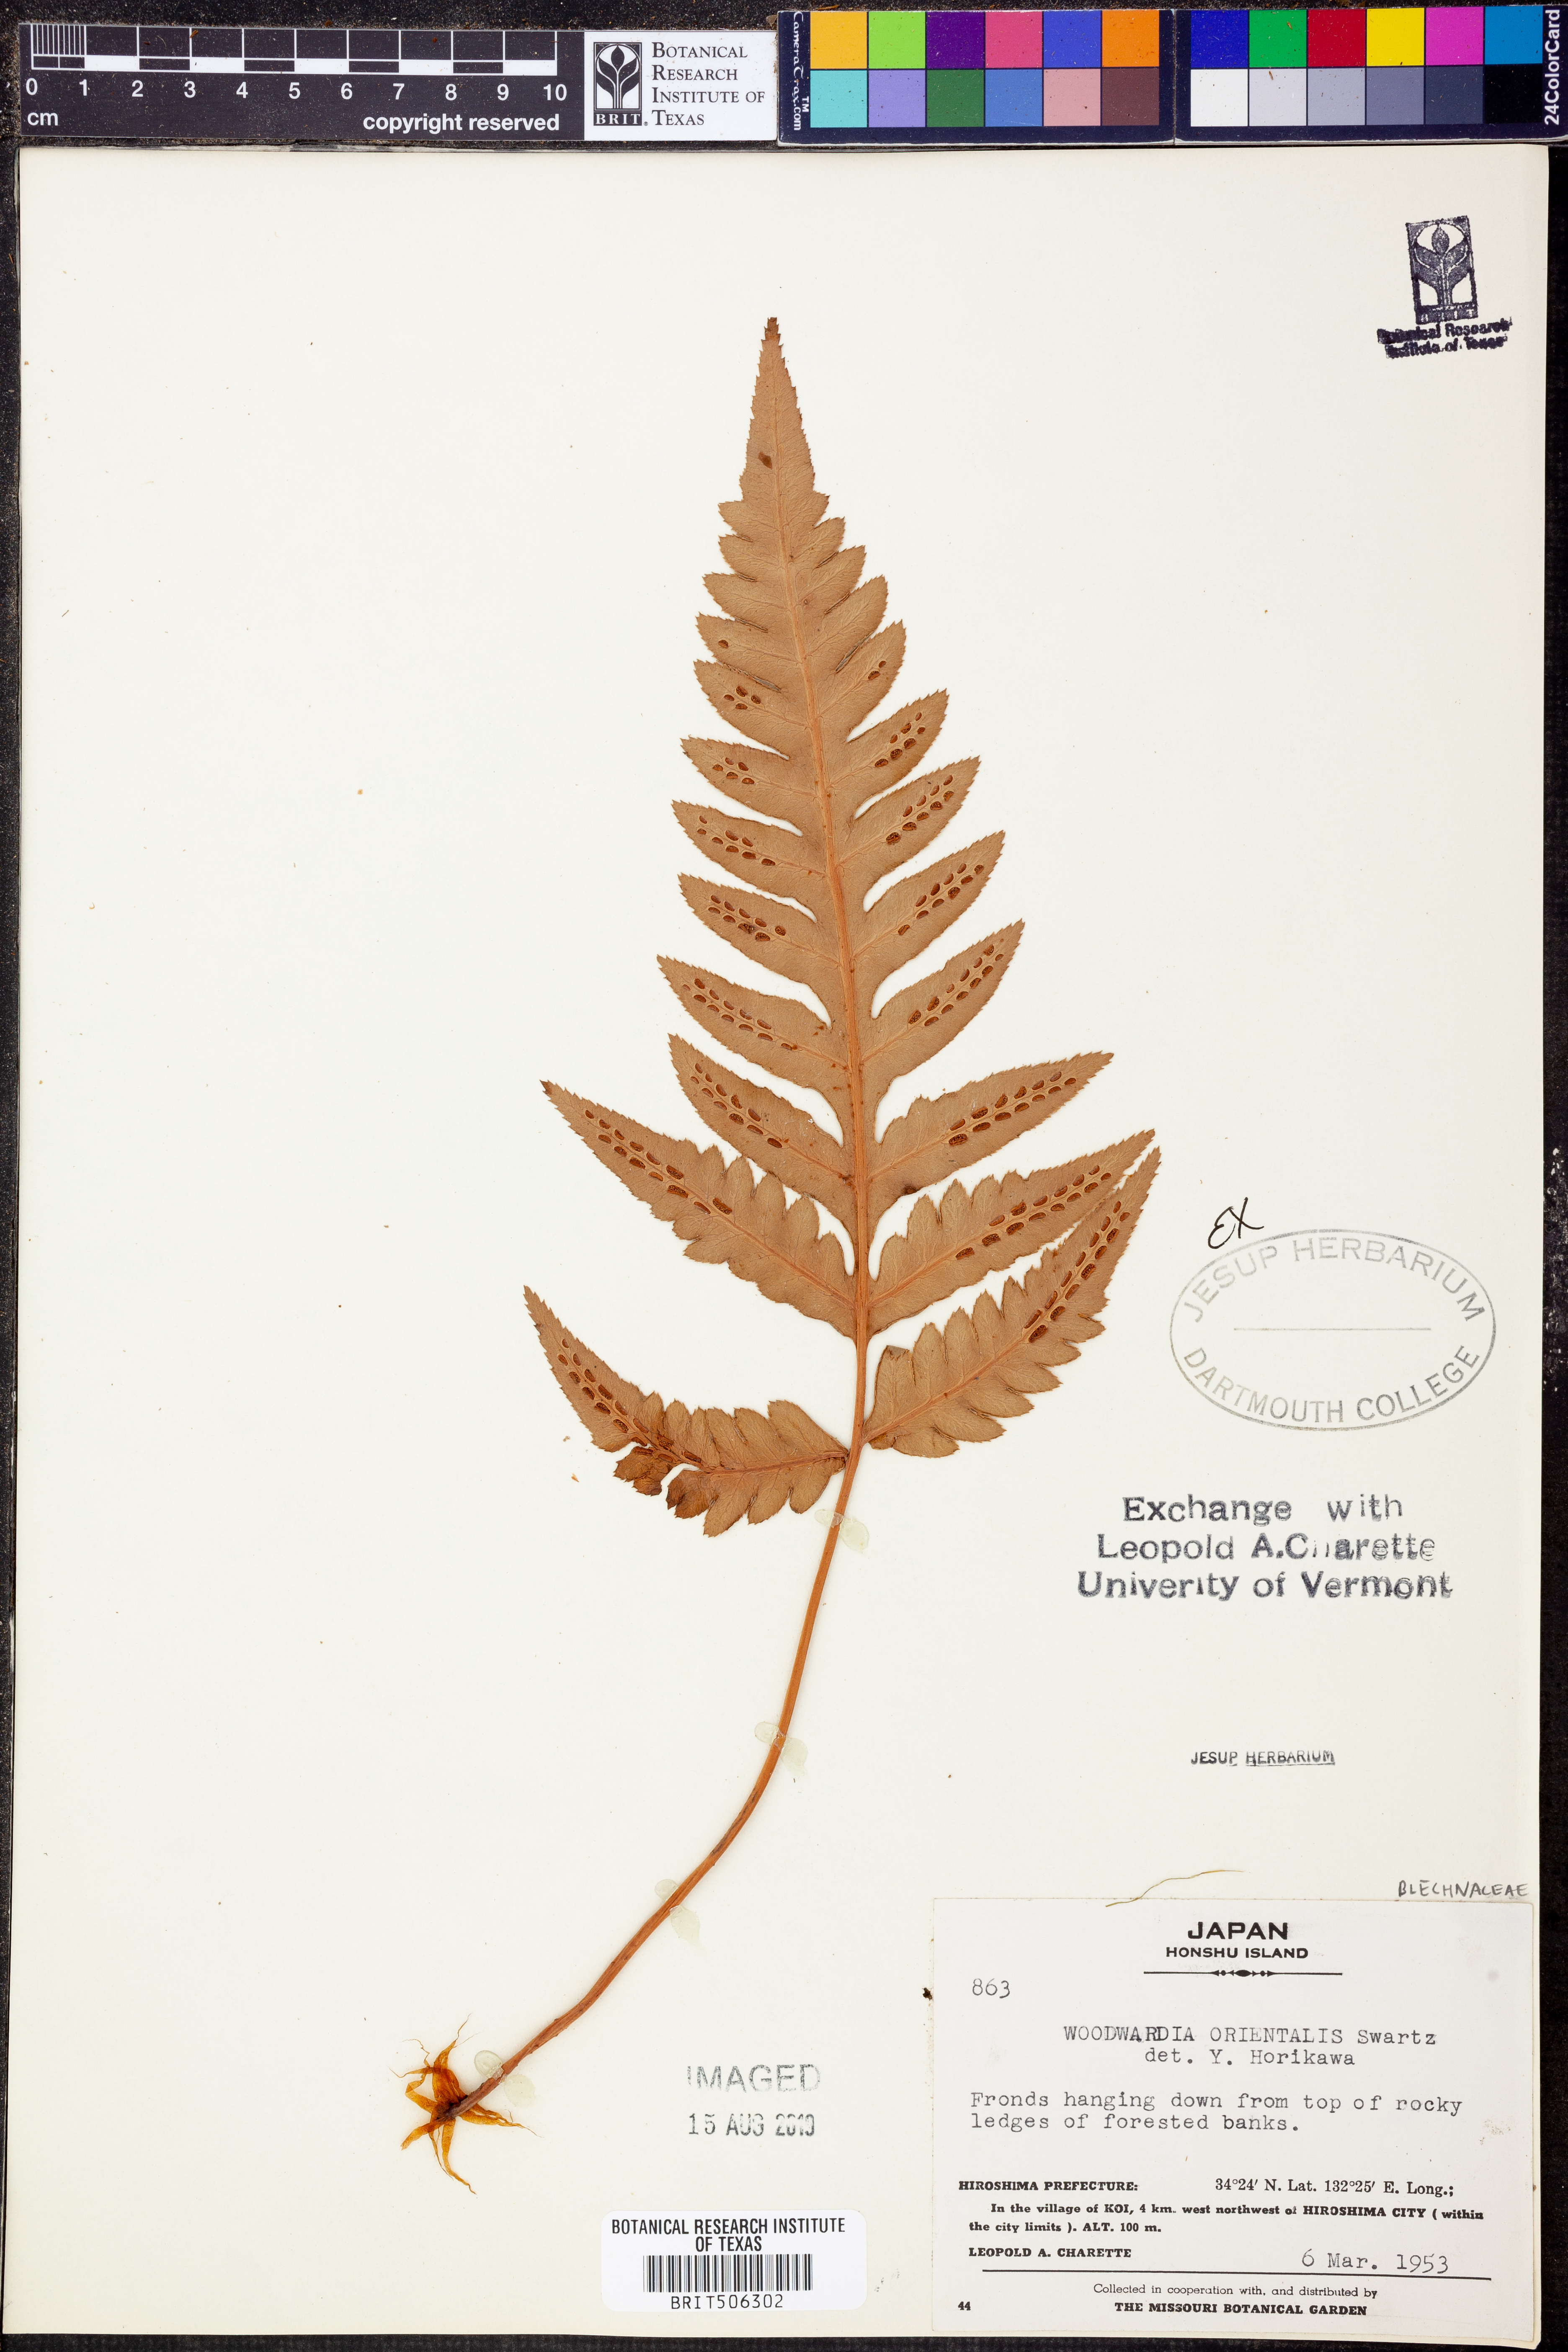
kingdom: Plantae
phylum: Tracheophyta
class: Polypodiopsida
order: Polypodiales
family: Blechnaceae
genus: Woodwardia
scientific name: Woodwardia orientalis
